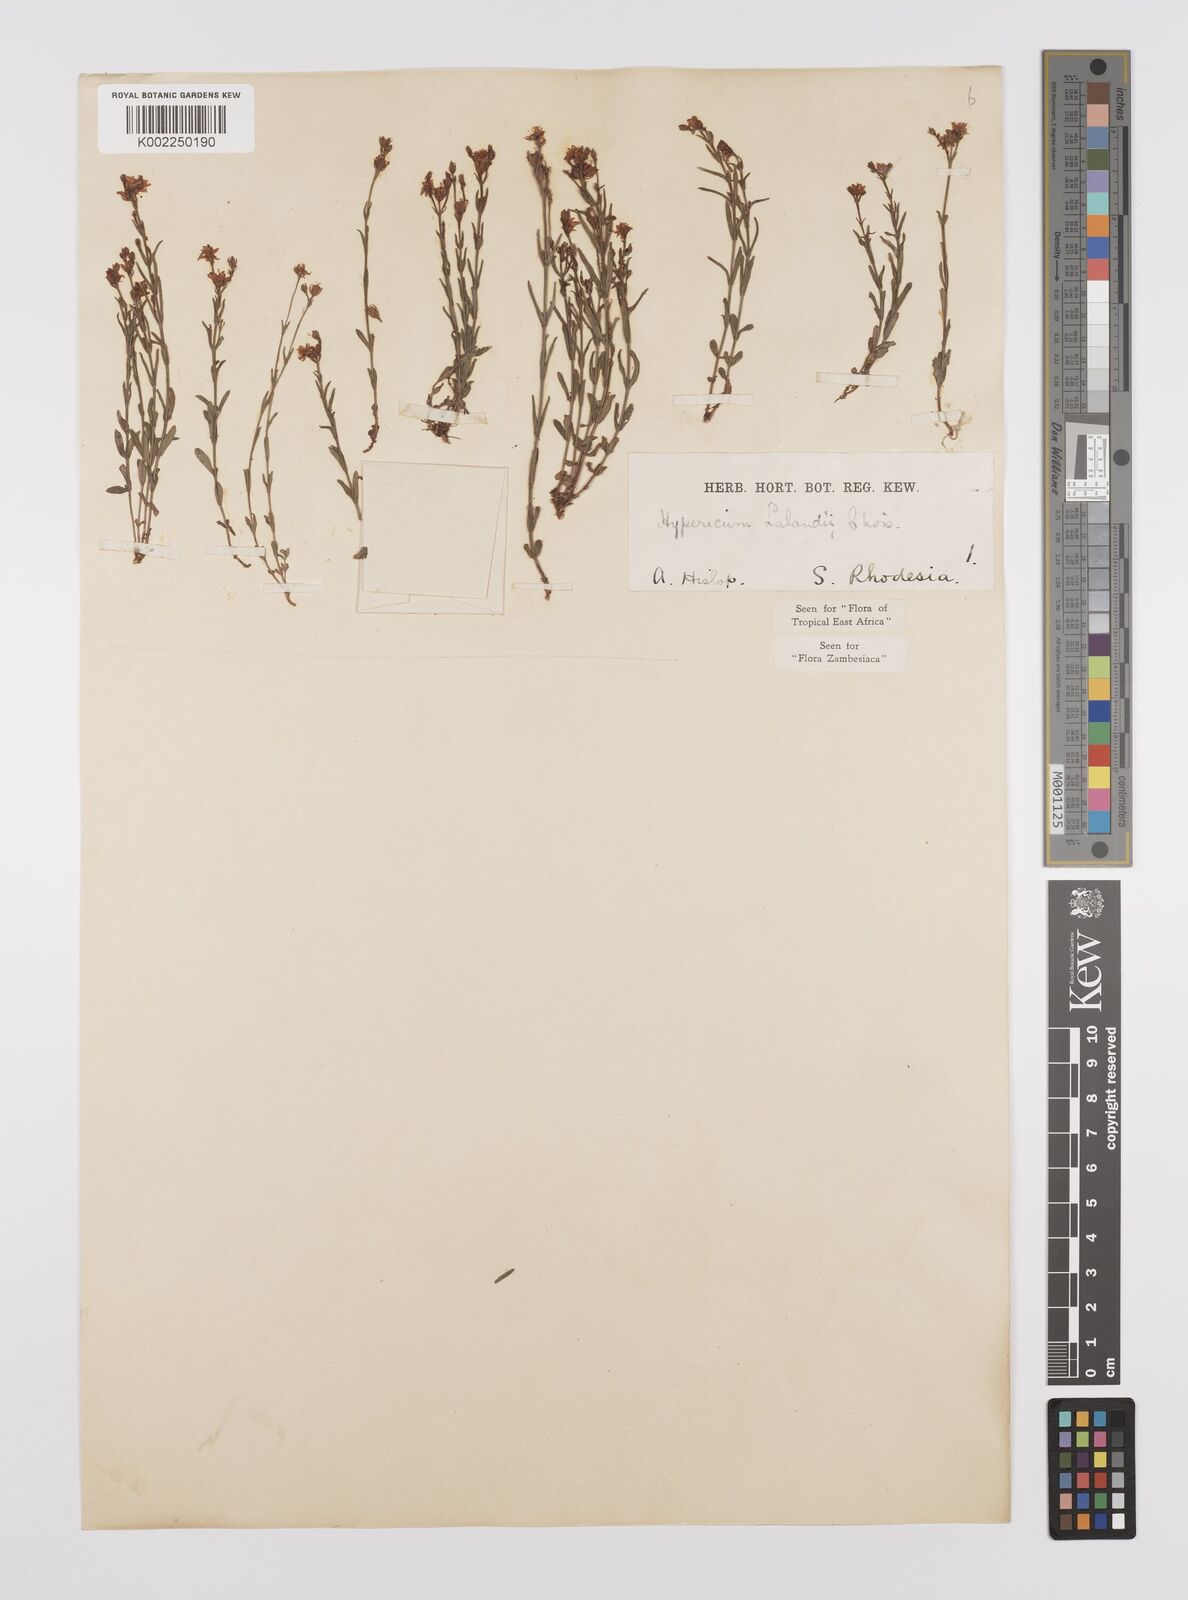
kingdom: Plantae
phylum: Tracheophyta
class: Magnoliopsida
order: Malpighiales
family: Hypericaceae
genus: Hypericum
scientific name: Hypericum lalandii
